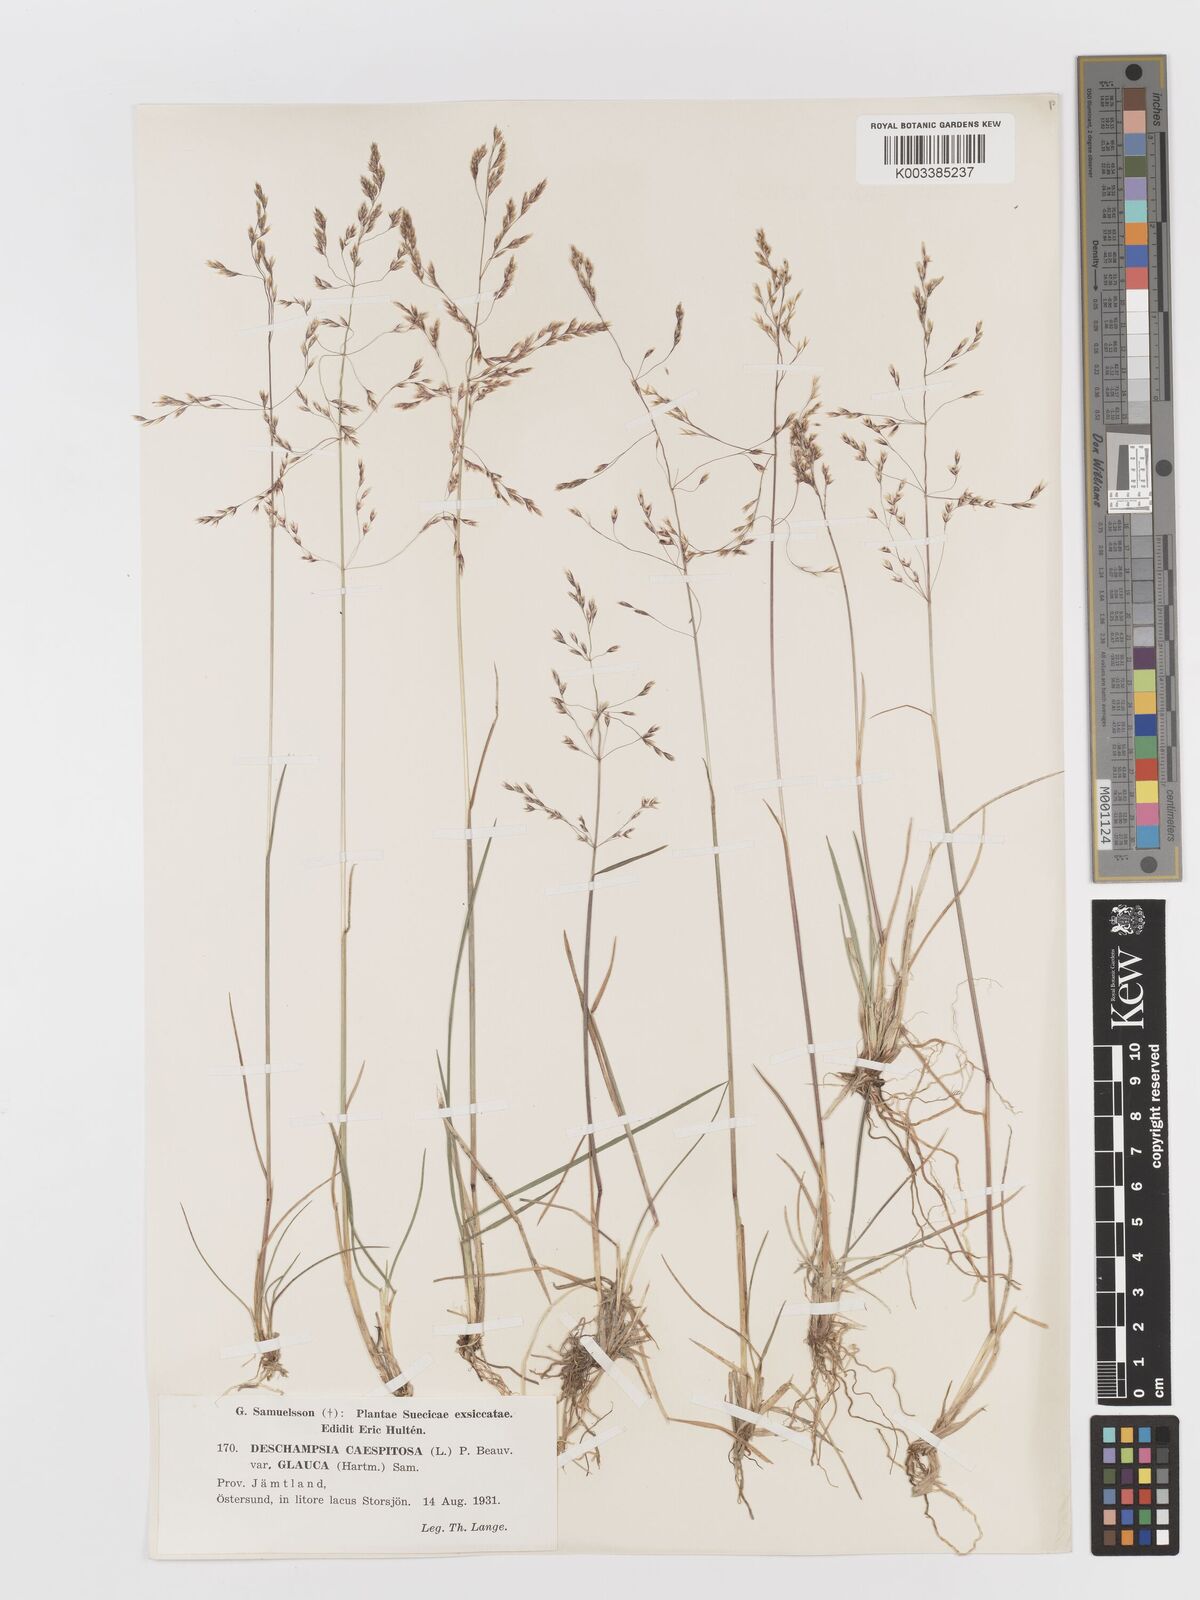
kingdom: Plantae
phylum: Tracheophyta
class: Liliopsida
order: Poales
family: Poaceae
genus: Deschampsia
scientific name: Deschampsia cespitosa
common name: Tufted hair-grass
